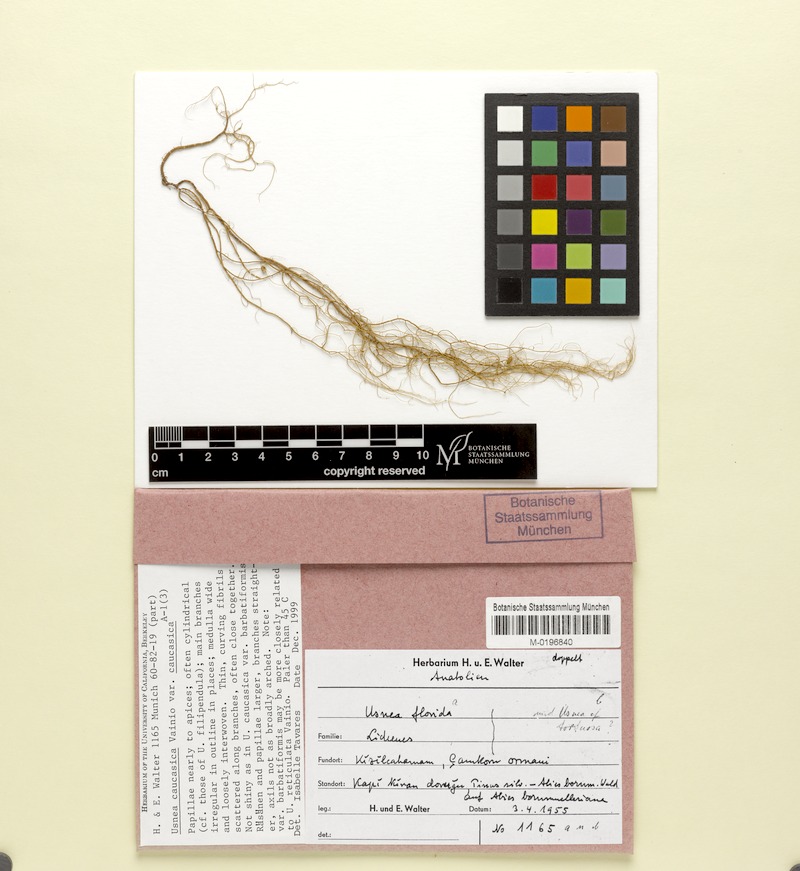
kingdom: Fungi
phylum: Ascomycota
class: Lecanoromycetes
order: Lecanorales
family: Parmeliaceae
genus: Usnea
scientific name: Usnea dasopoga
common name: Fishbone beard lichen
